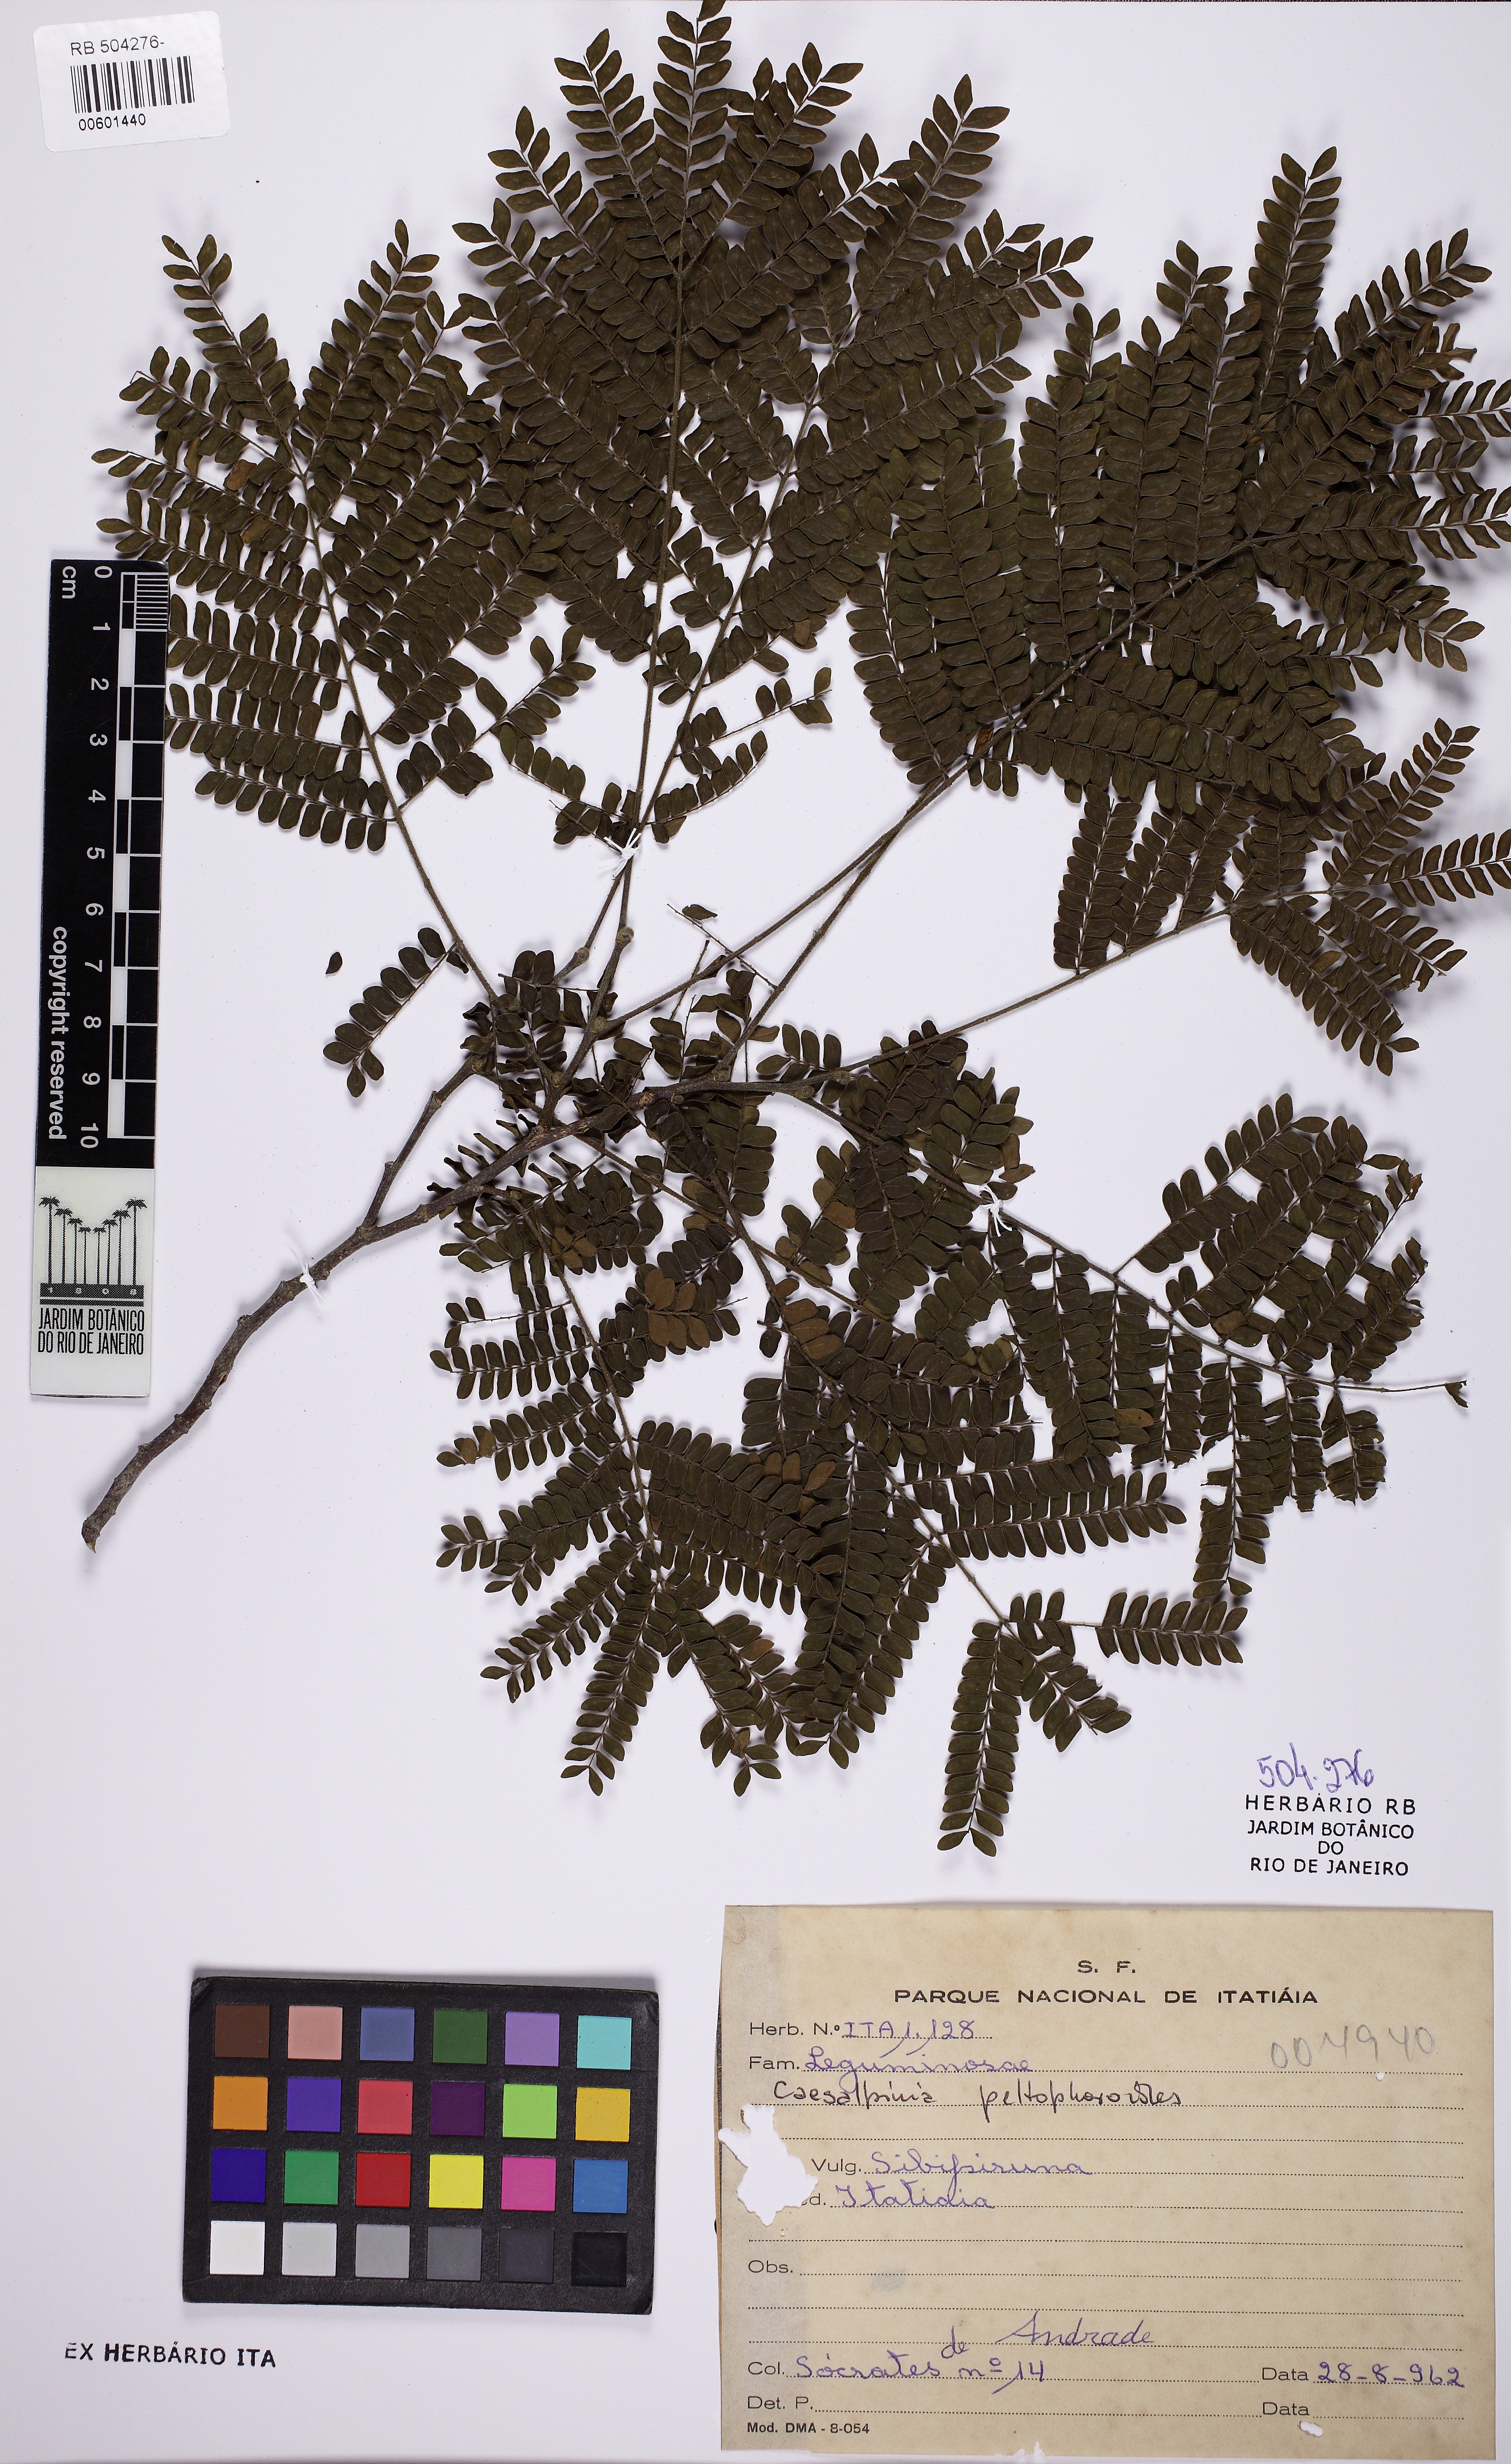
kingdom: Plantae
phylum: Tracheophyta
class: Magnoliopsida
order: Fabales
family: Fabaceae
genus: Cenostigma
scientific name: Cenostigma pluviosum
